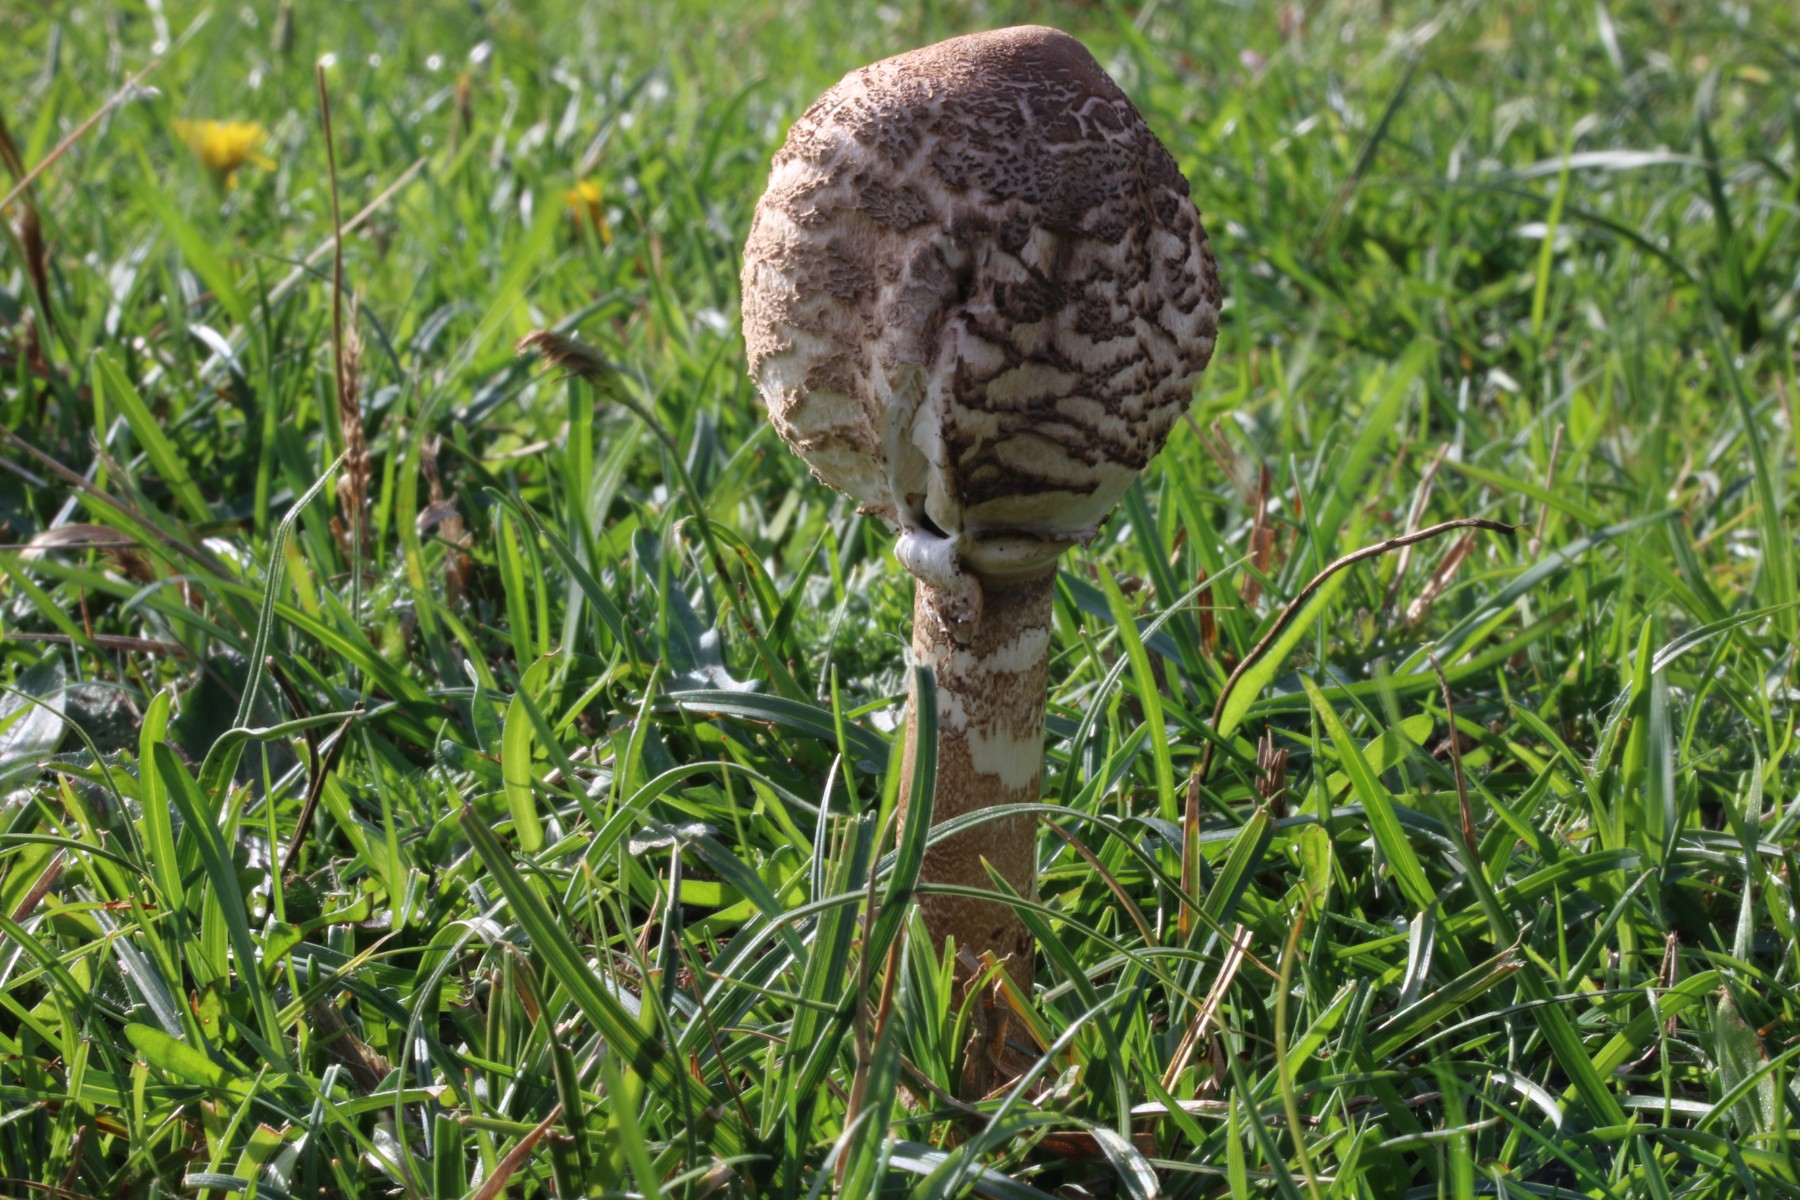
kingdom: Fungi
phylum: Basidiomycota
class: Agaricomycetes
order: Agaricales
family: Agaricaceae
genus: Macrolepiota
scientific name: Macrolepiota procera
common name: stor kæmpeparasolhat
